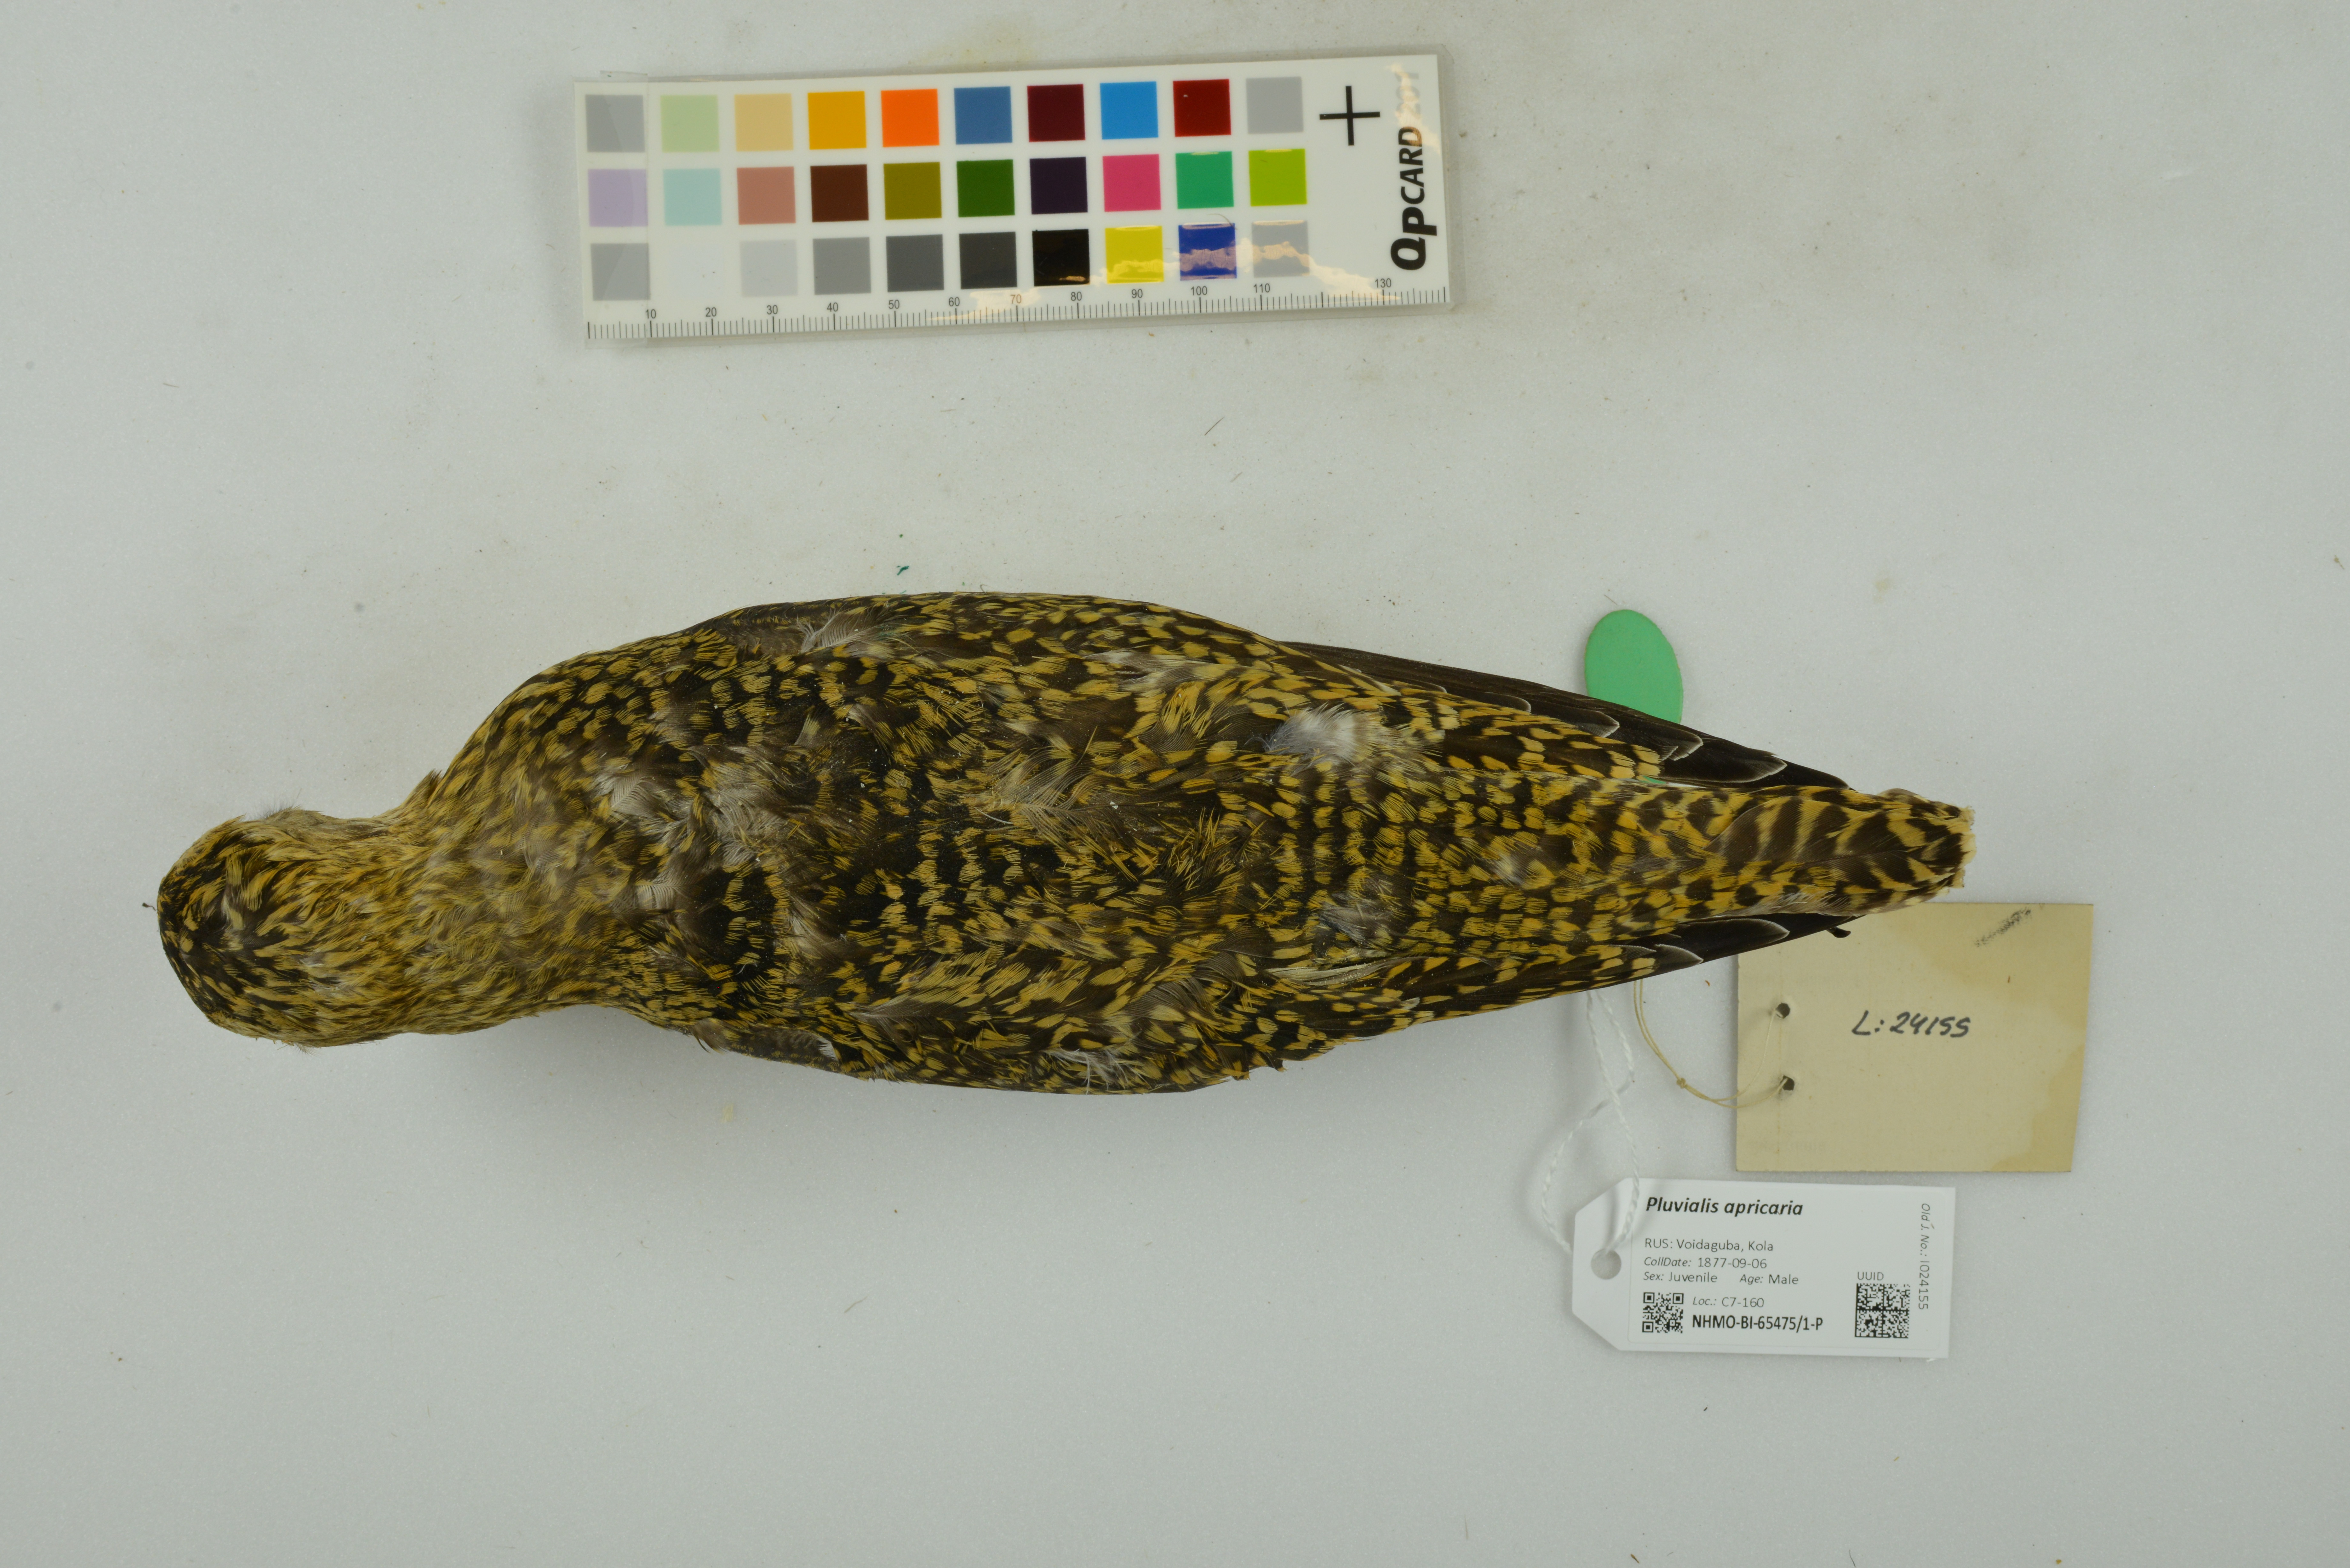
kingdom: Animalia
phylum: Chordata
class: Aves
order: Charadriiformes
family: Charadriidae
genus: Pluvialis
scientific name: Pluvialis apricaria
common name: European golden plover
